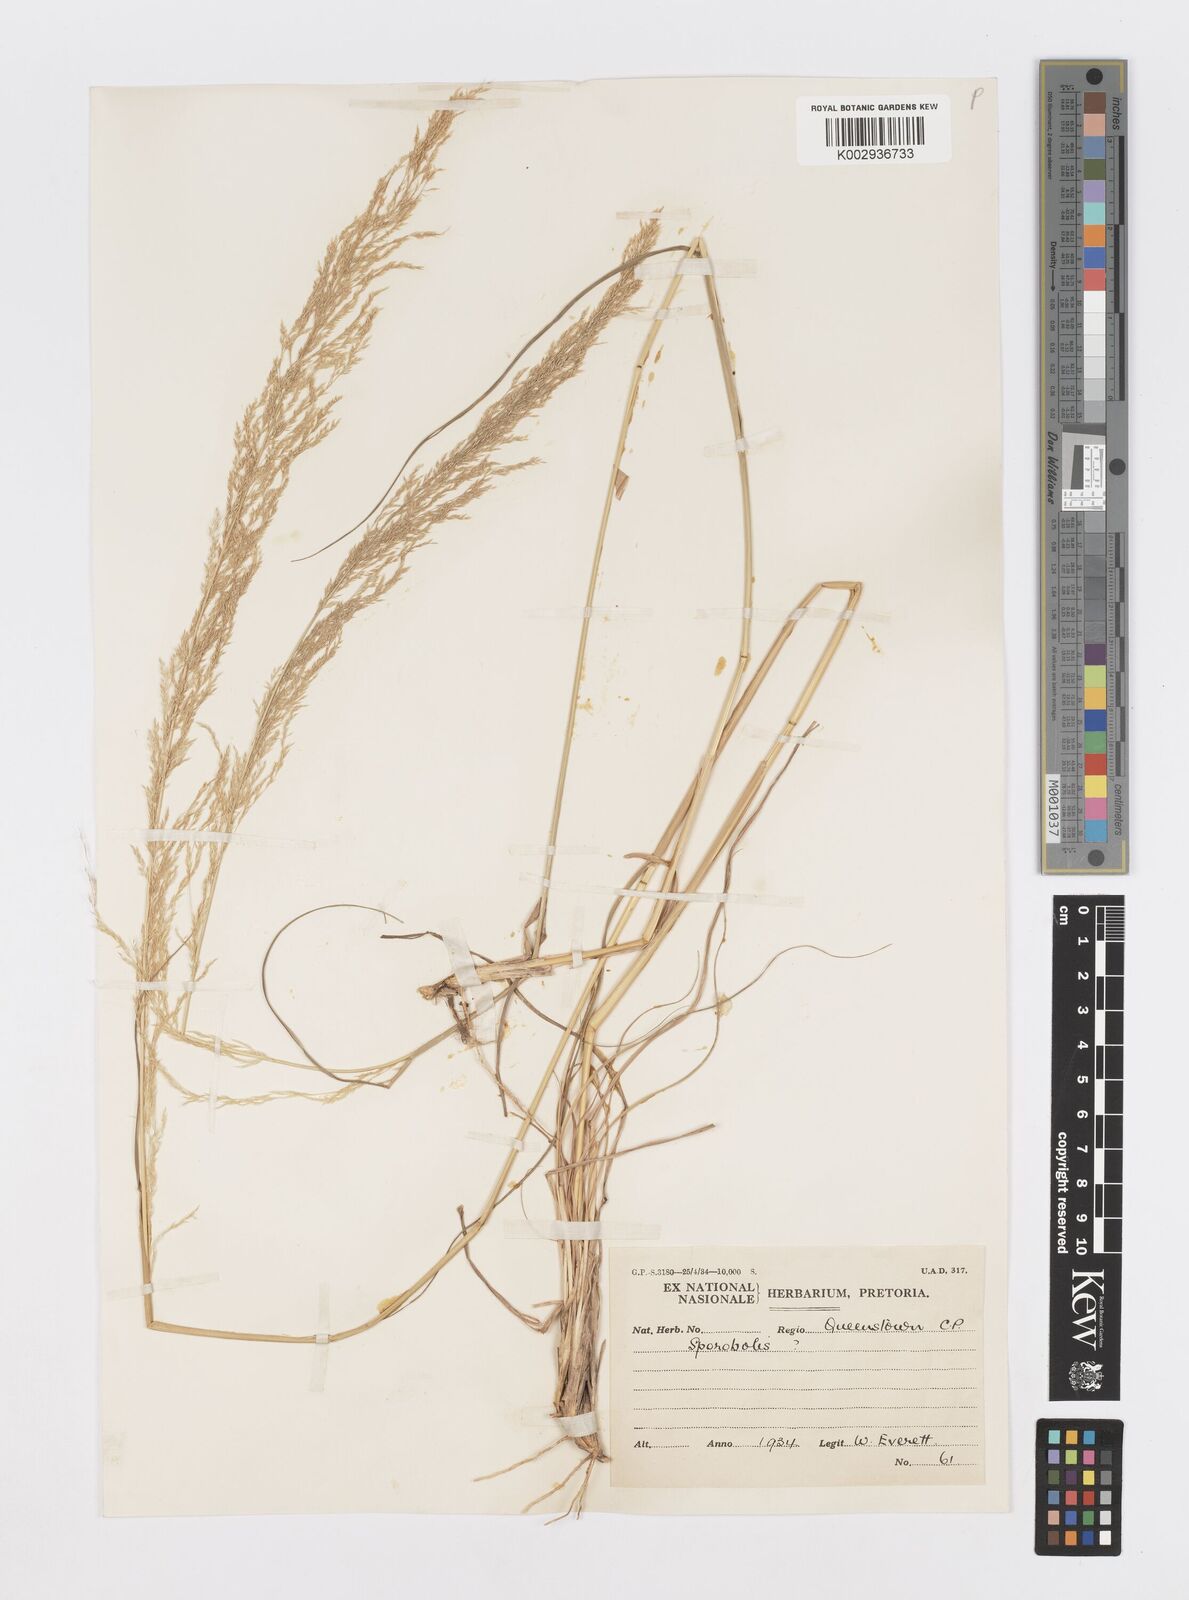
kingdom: Plantae
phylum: Tracheophyta
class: Liliopsida
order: Poales
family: Poaceae
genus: Sporobolus
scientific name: Sporobolus fimbriatus
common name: Fringed dropseed
